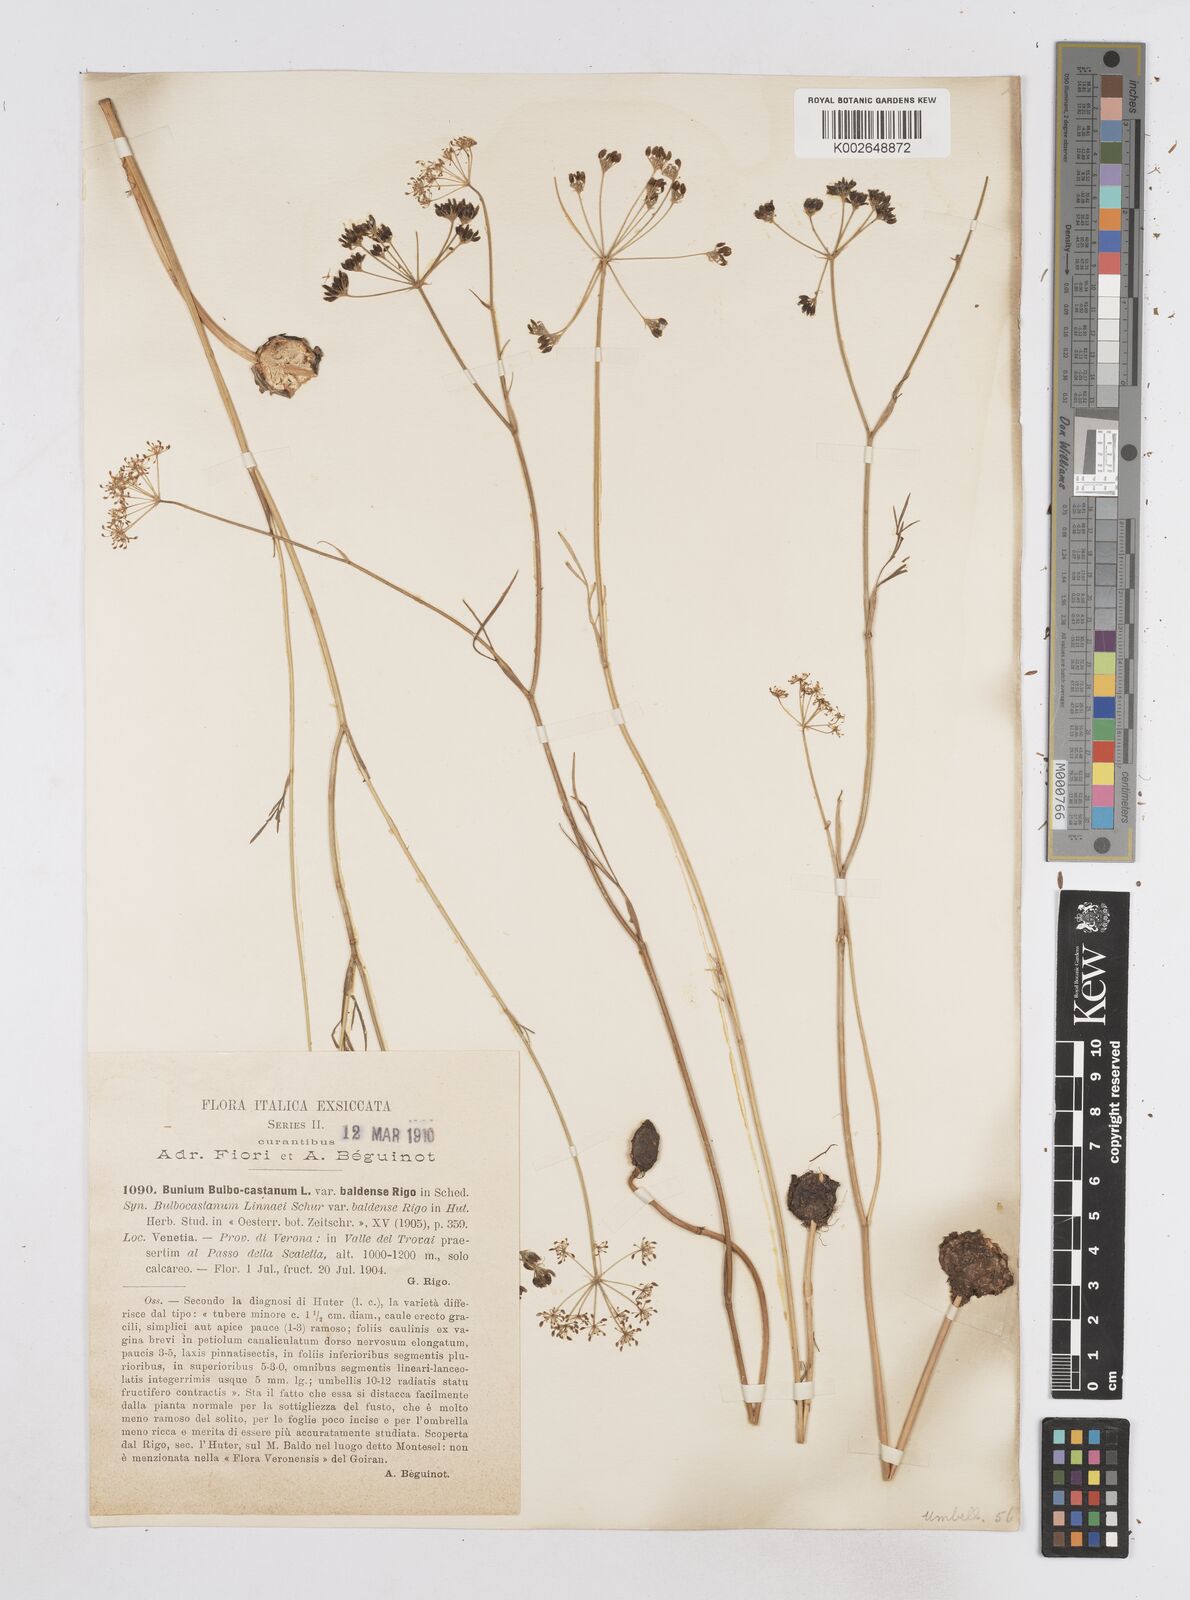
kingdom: Plantae
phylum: Tracheophyta
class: Magnoliopsida
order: Apiales
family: Apiaceae
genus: Bunium
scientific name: Bunium bulbocastanum
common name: Great pignut
